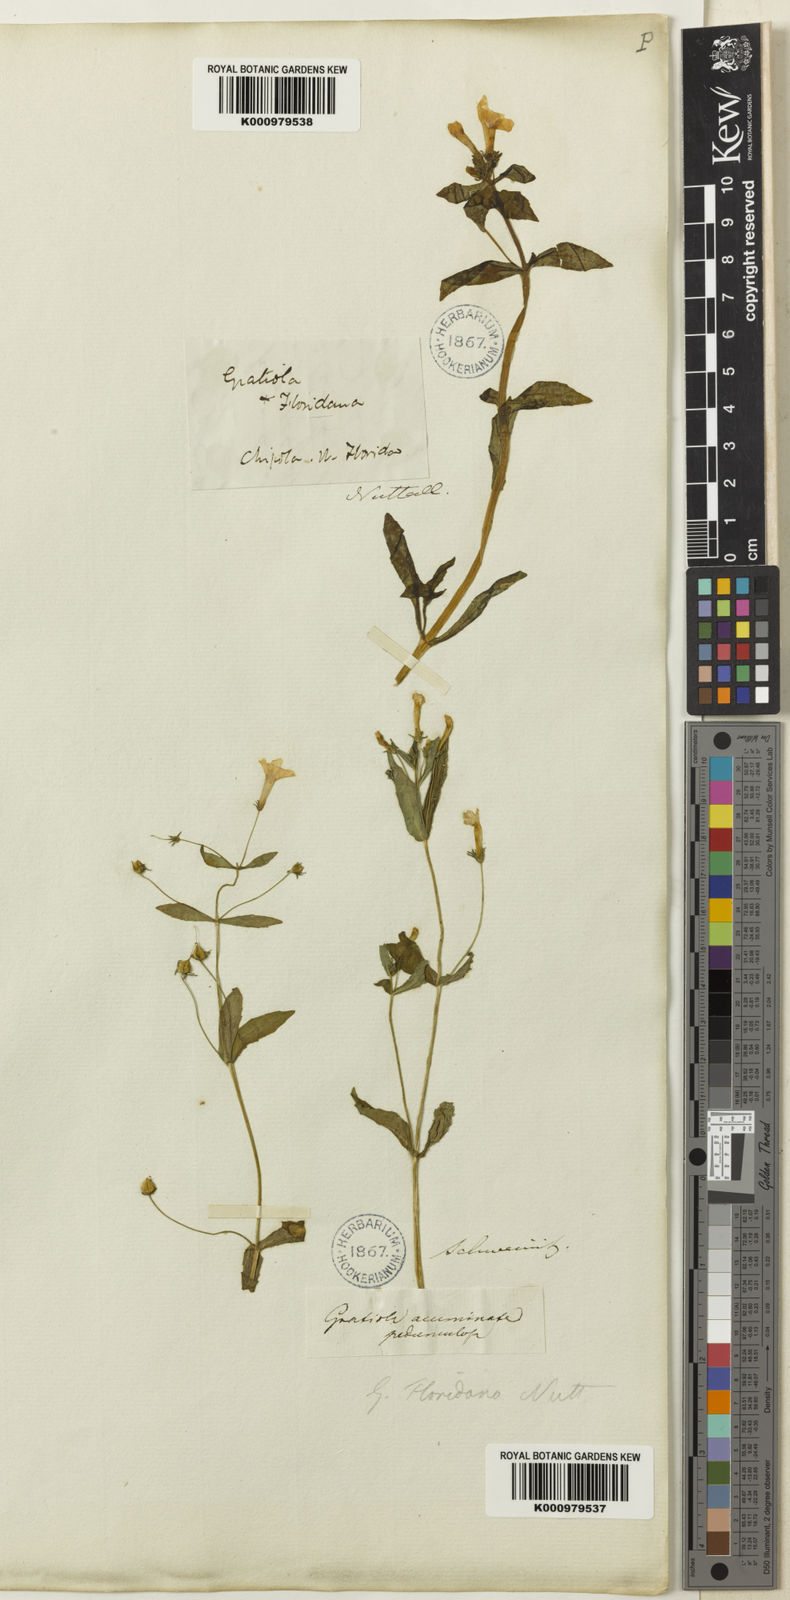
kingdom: Plantae
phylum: Tracheophyta
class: Magnoliopsida
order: Lamiales
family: Plantaginaceae
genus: Gratiola
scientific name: Gratiola floridana
